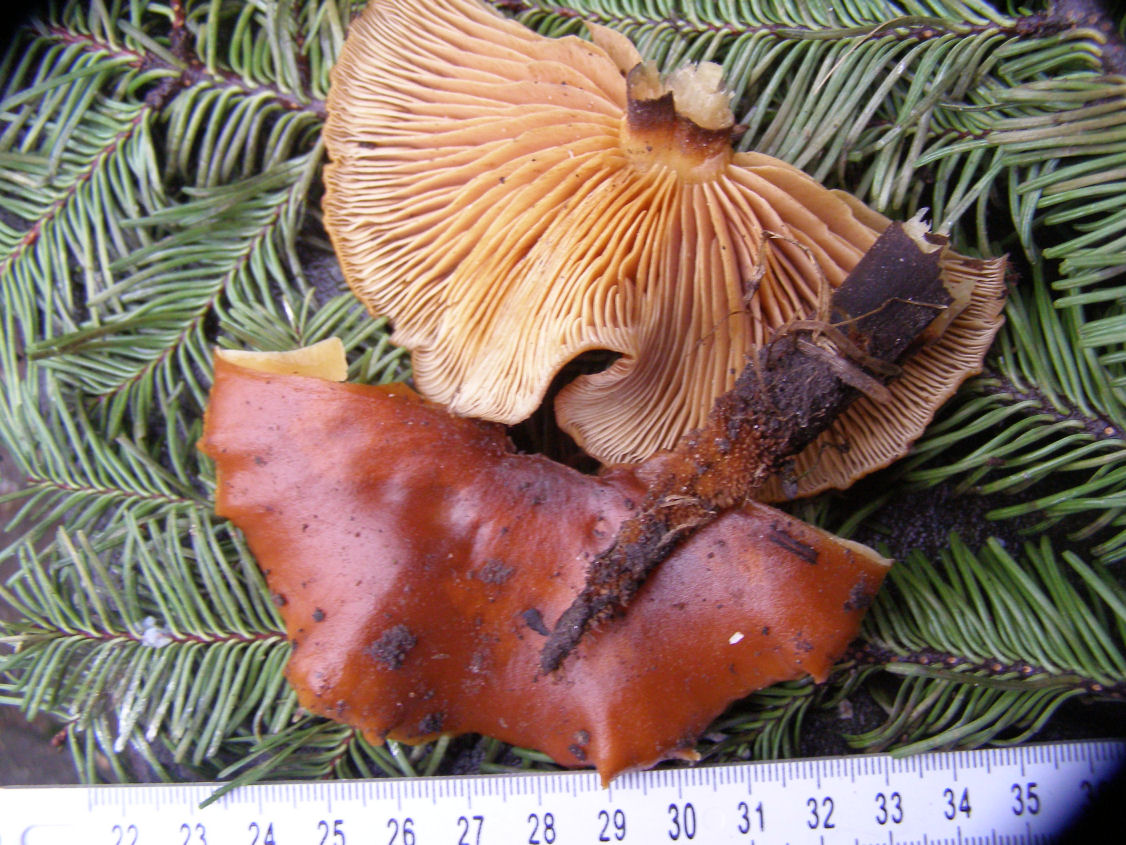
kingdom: Fungi
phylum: Basidiomycota
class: Agaricomycetes
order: Agaricales
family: Physalacriaceae
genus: Flammulina
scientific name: Flammulina
